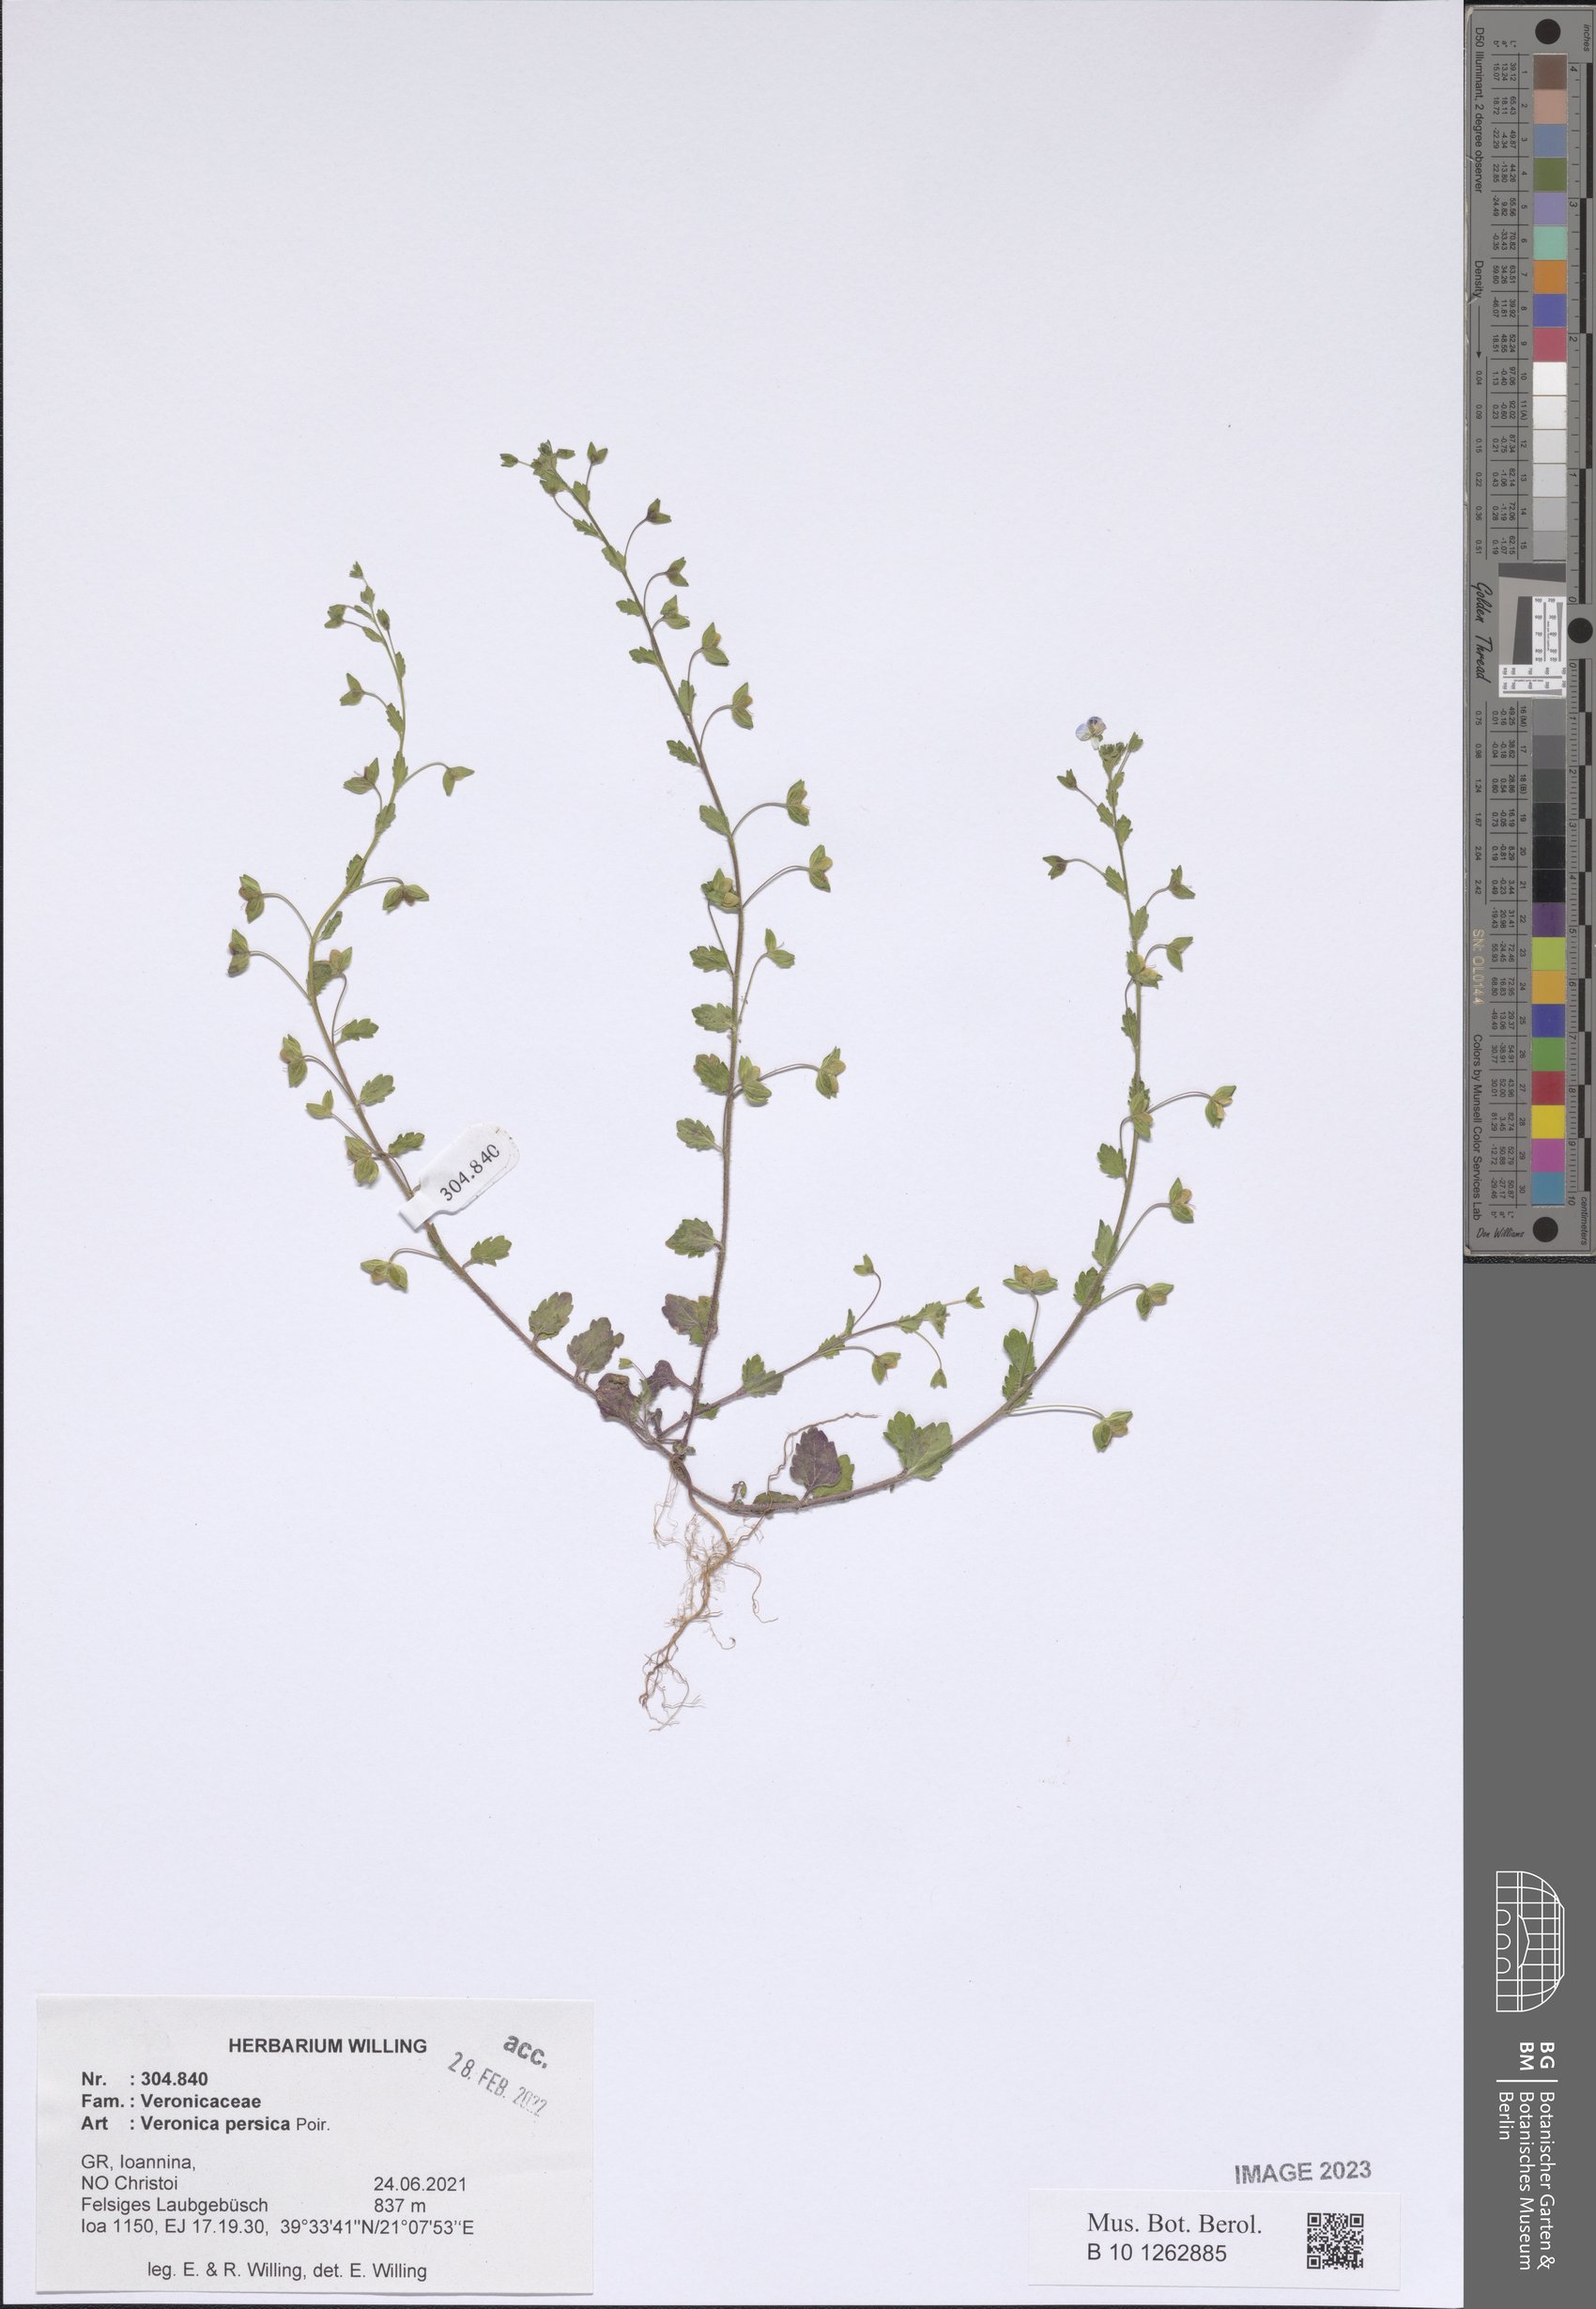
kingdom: Plantae
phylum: Tracheophyta
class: Magnoliopsida
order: Lamiales
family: Plantaginaceae
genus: Veronica
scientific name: Veronica persica
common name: Common field-speedwell
